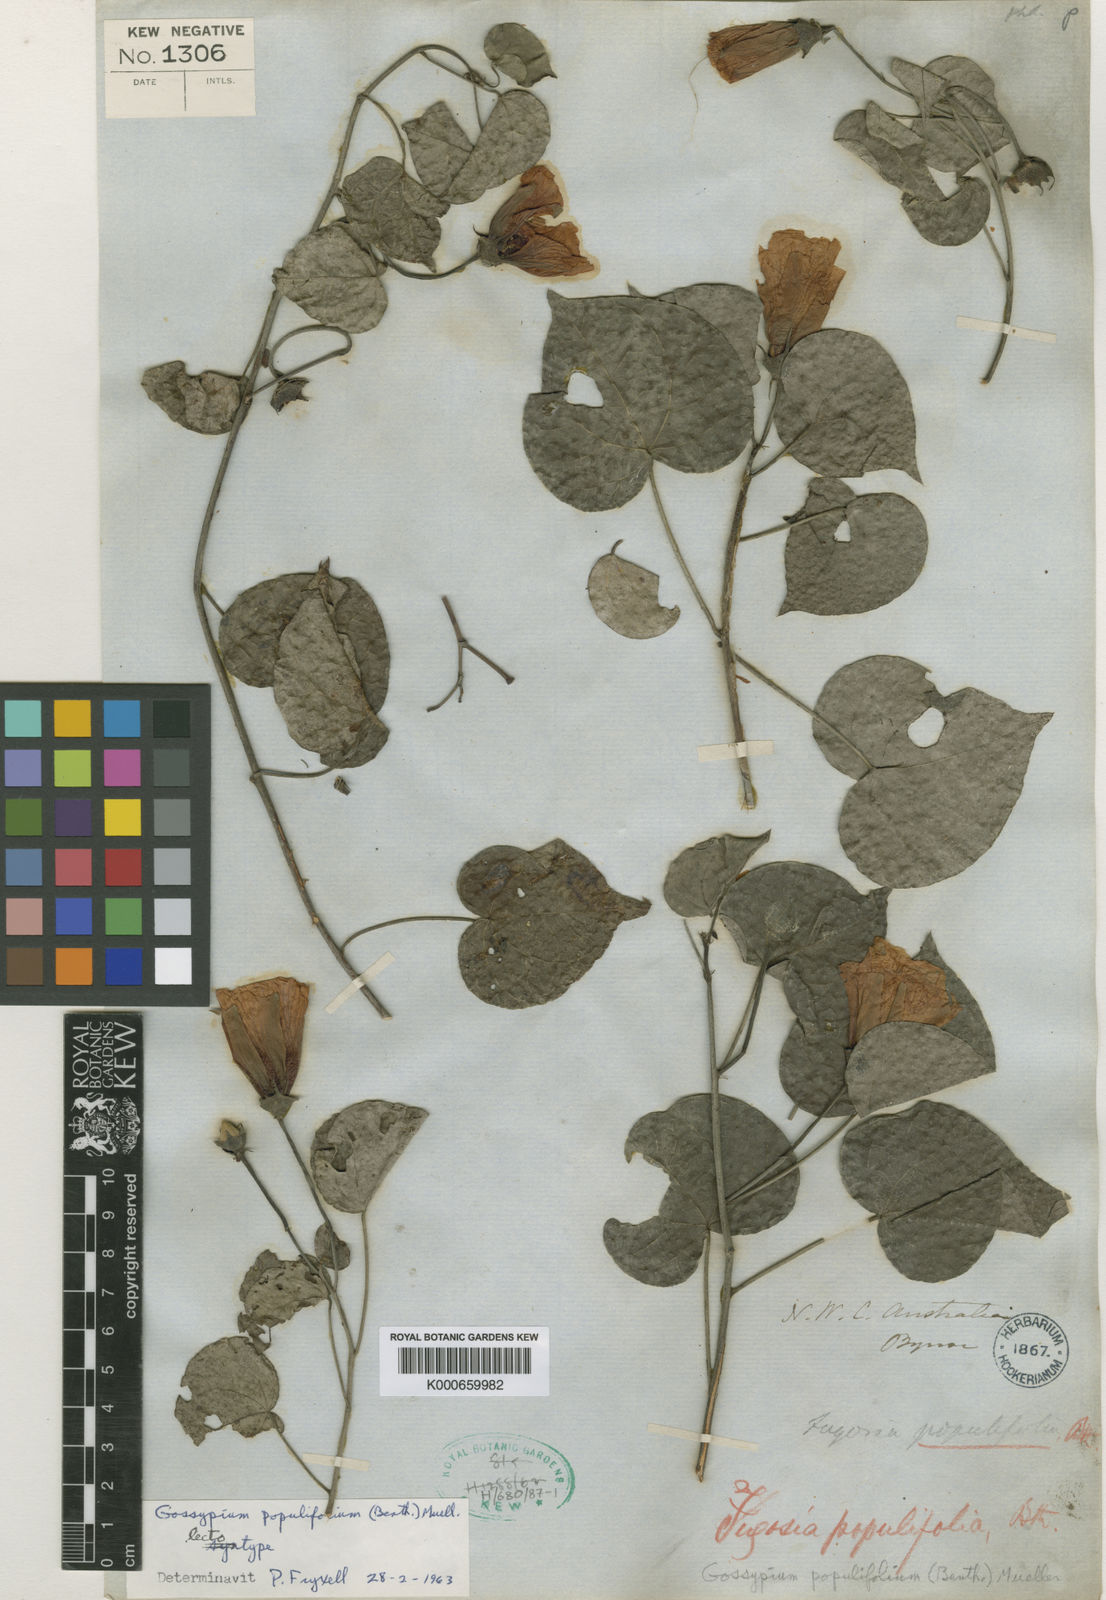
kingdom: Plantae
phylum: Tracheophyta
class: Magnoliopsida
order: Malvales
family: Malvaceae
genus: Gossypium
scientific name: Gossypium
